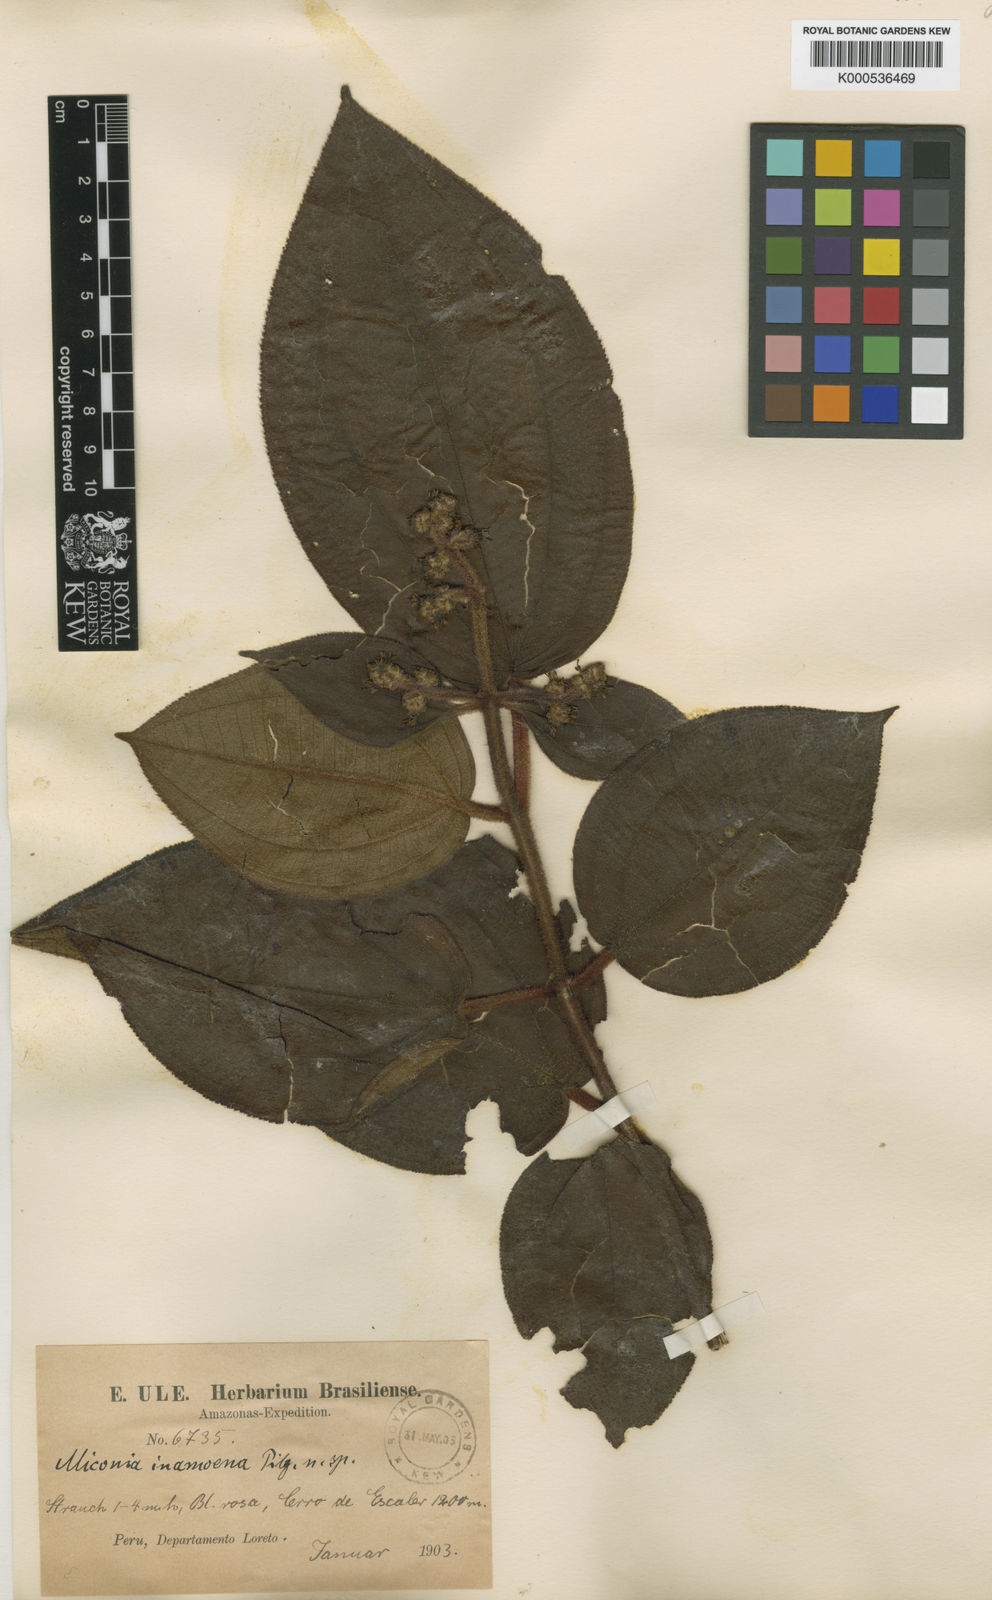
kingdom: Plantae
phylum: Tracheophyta
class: Magnoliopsida
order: Myrtales
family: Melastomataceae
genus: Miconia
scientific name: Miconia inamoena
